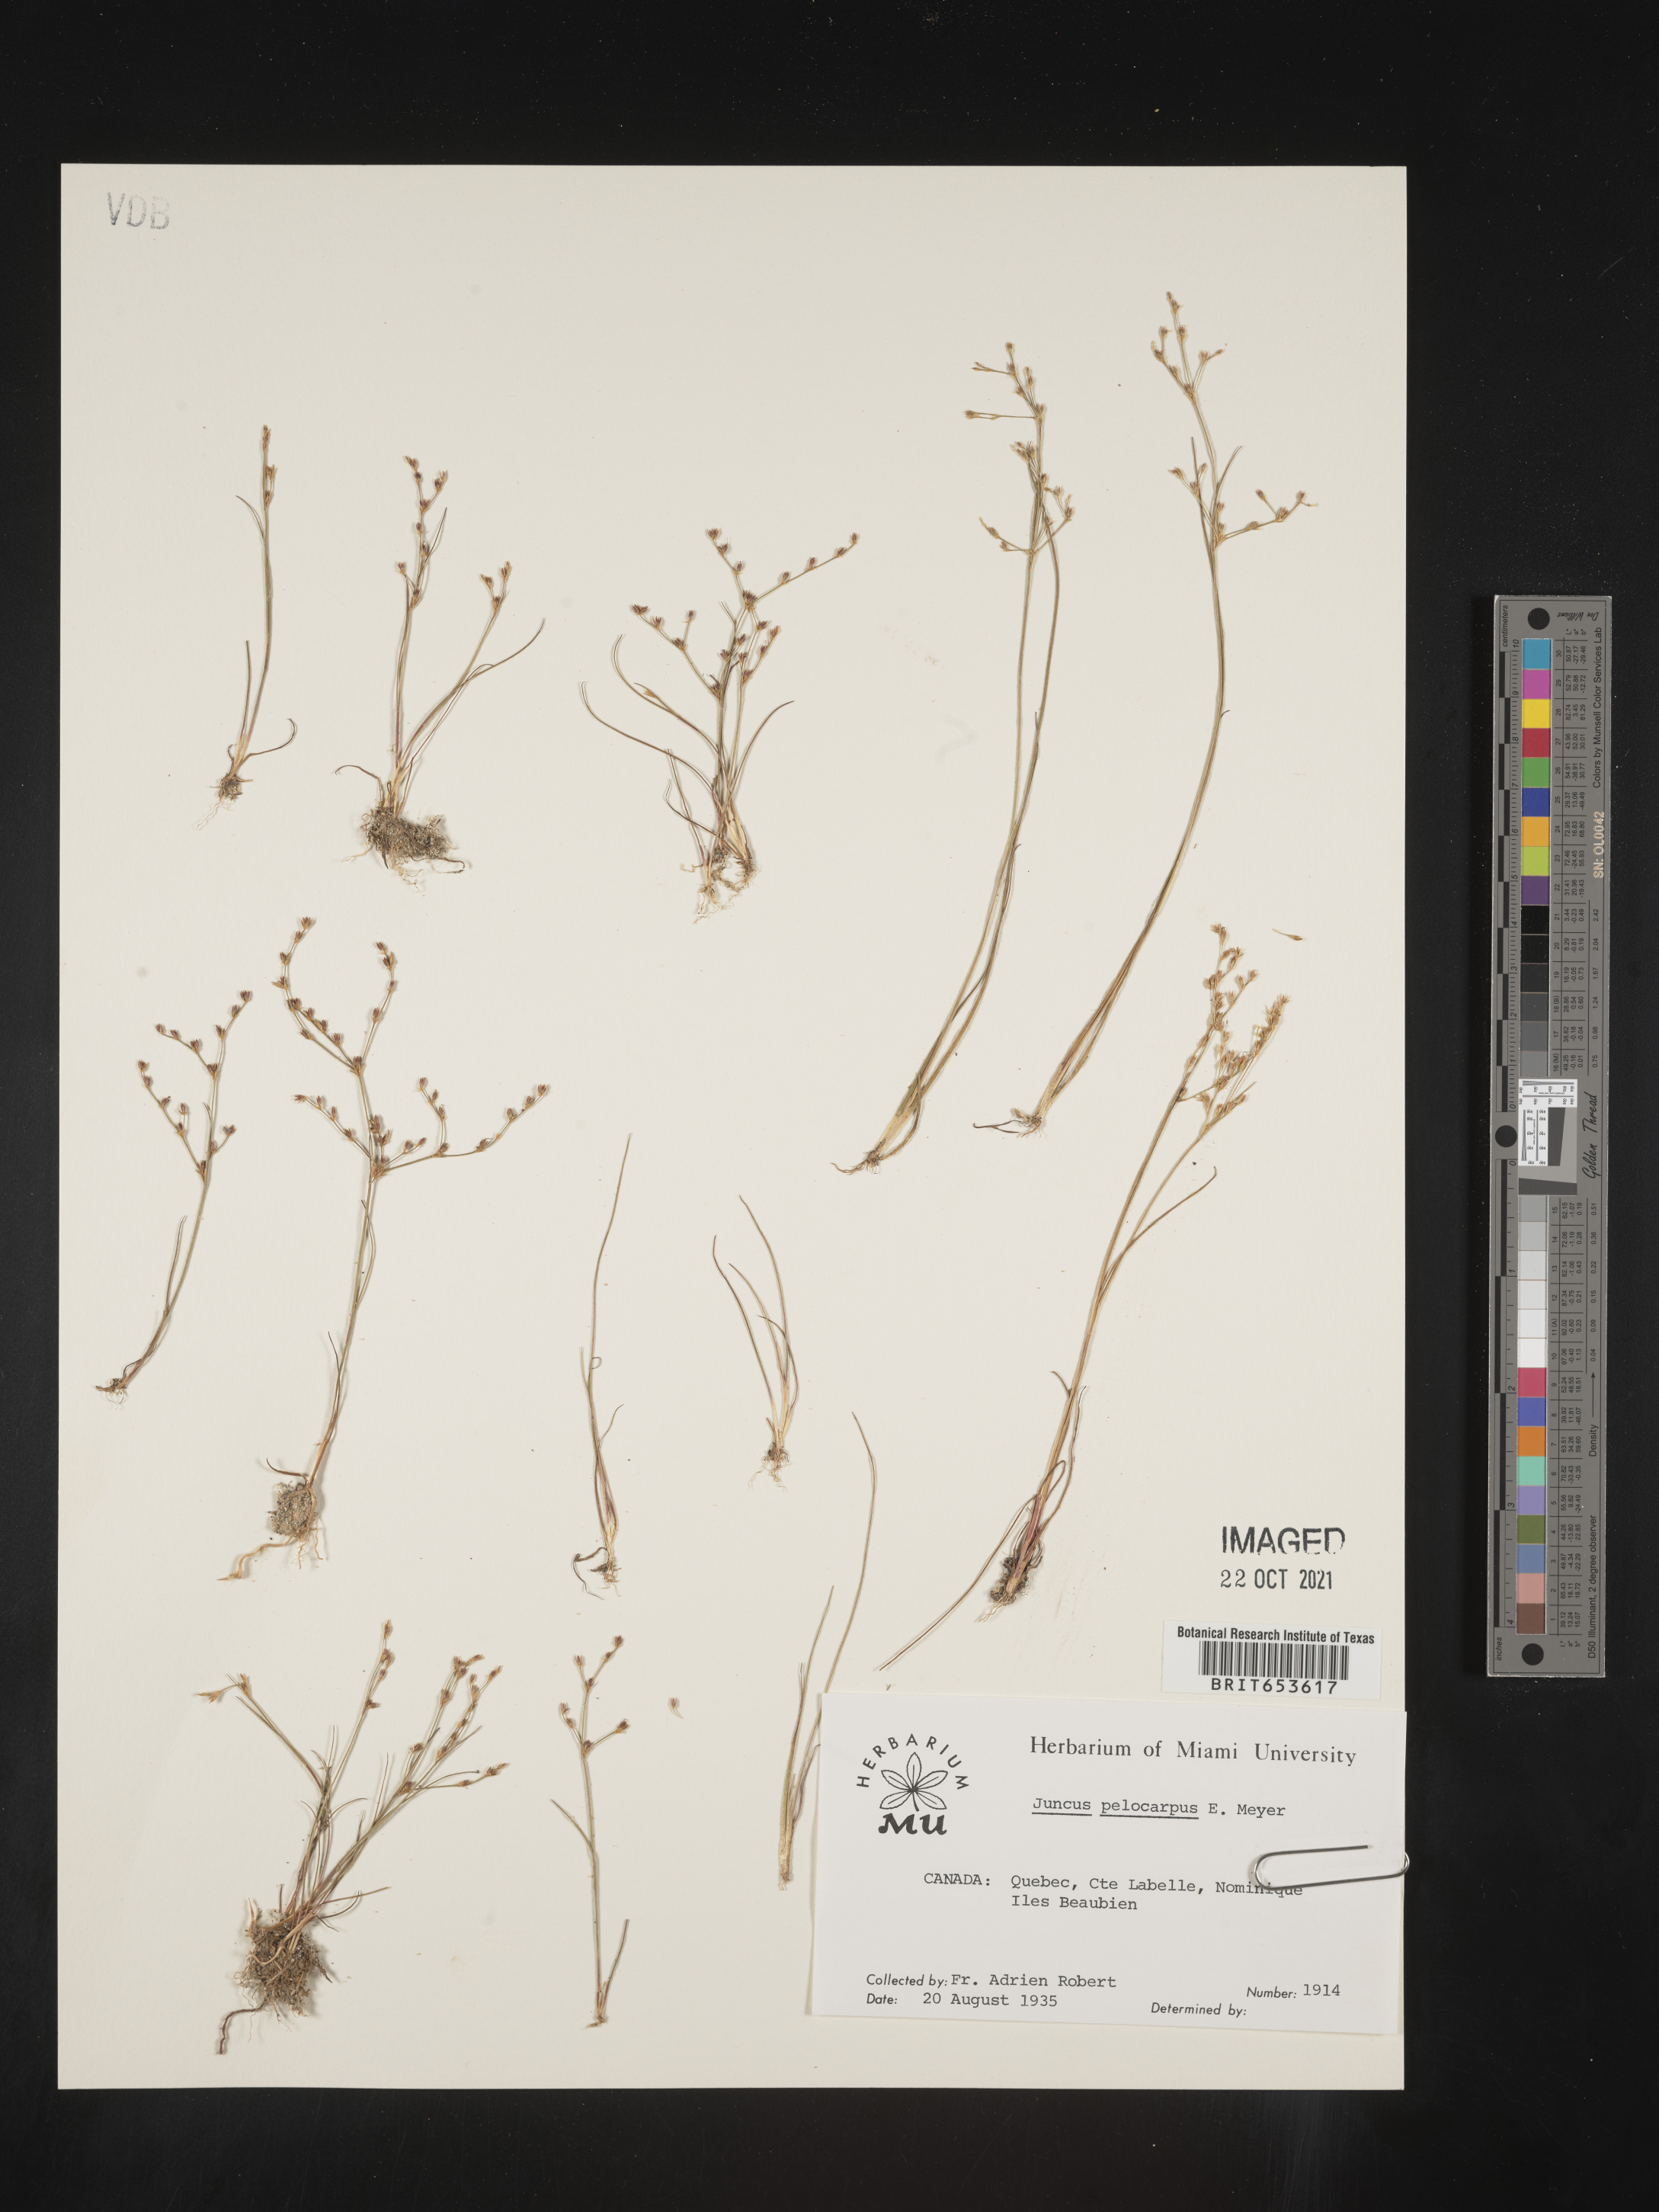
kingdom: Plantae
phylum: Tracheophyta
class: Liliopsida
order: Poales
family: Juncaceae
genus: Juncus
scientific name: Juncus
